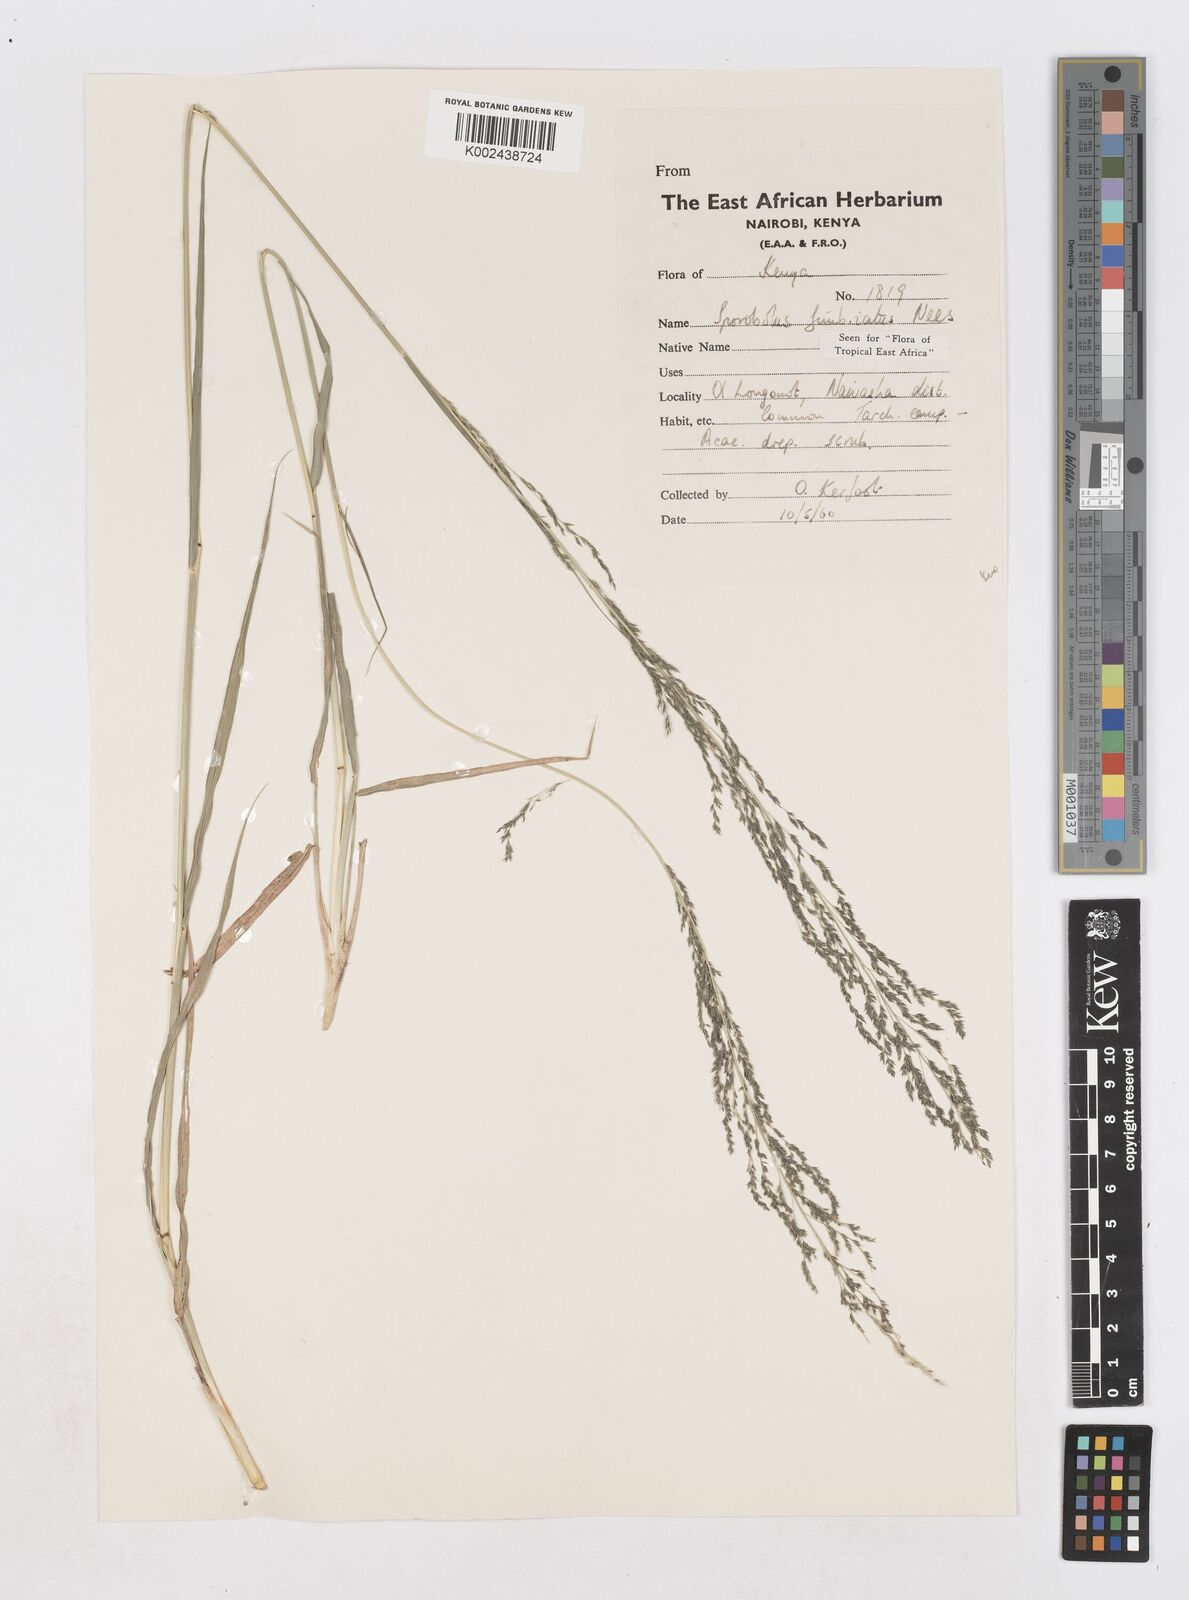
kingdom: Plantae
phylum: Tracheophyta
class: Liliopsida
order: Poales
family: Poaceae
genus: Sporobolus
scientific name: Sporobolus fimbriatus
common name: Fringed dropseed
